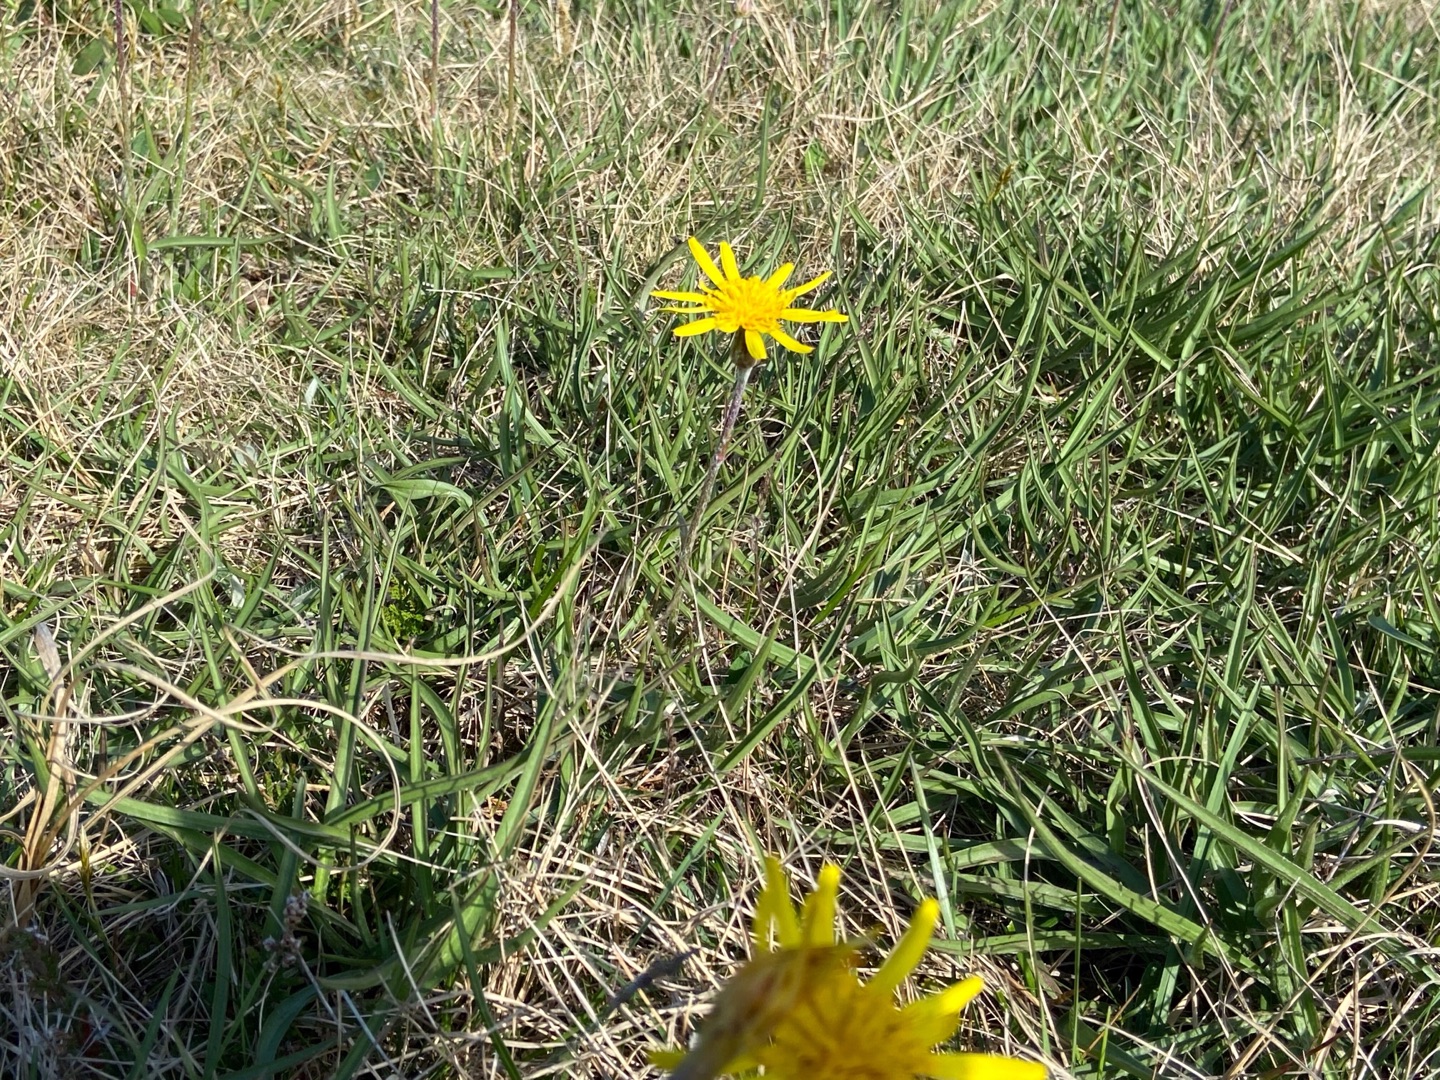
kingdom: Plantae
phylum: Tracheophyta
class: Magnoliopsida
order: Asterales
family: Asteraceae
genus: Scorzonera
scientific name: Scorzonera humilis
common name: Lav skorsoner
